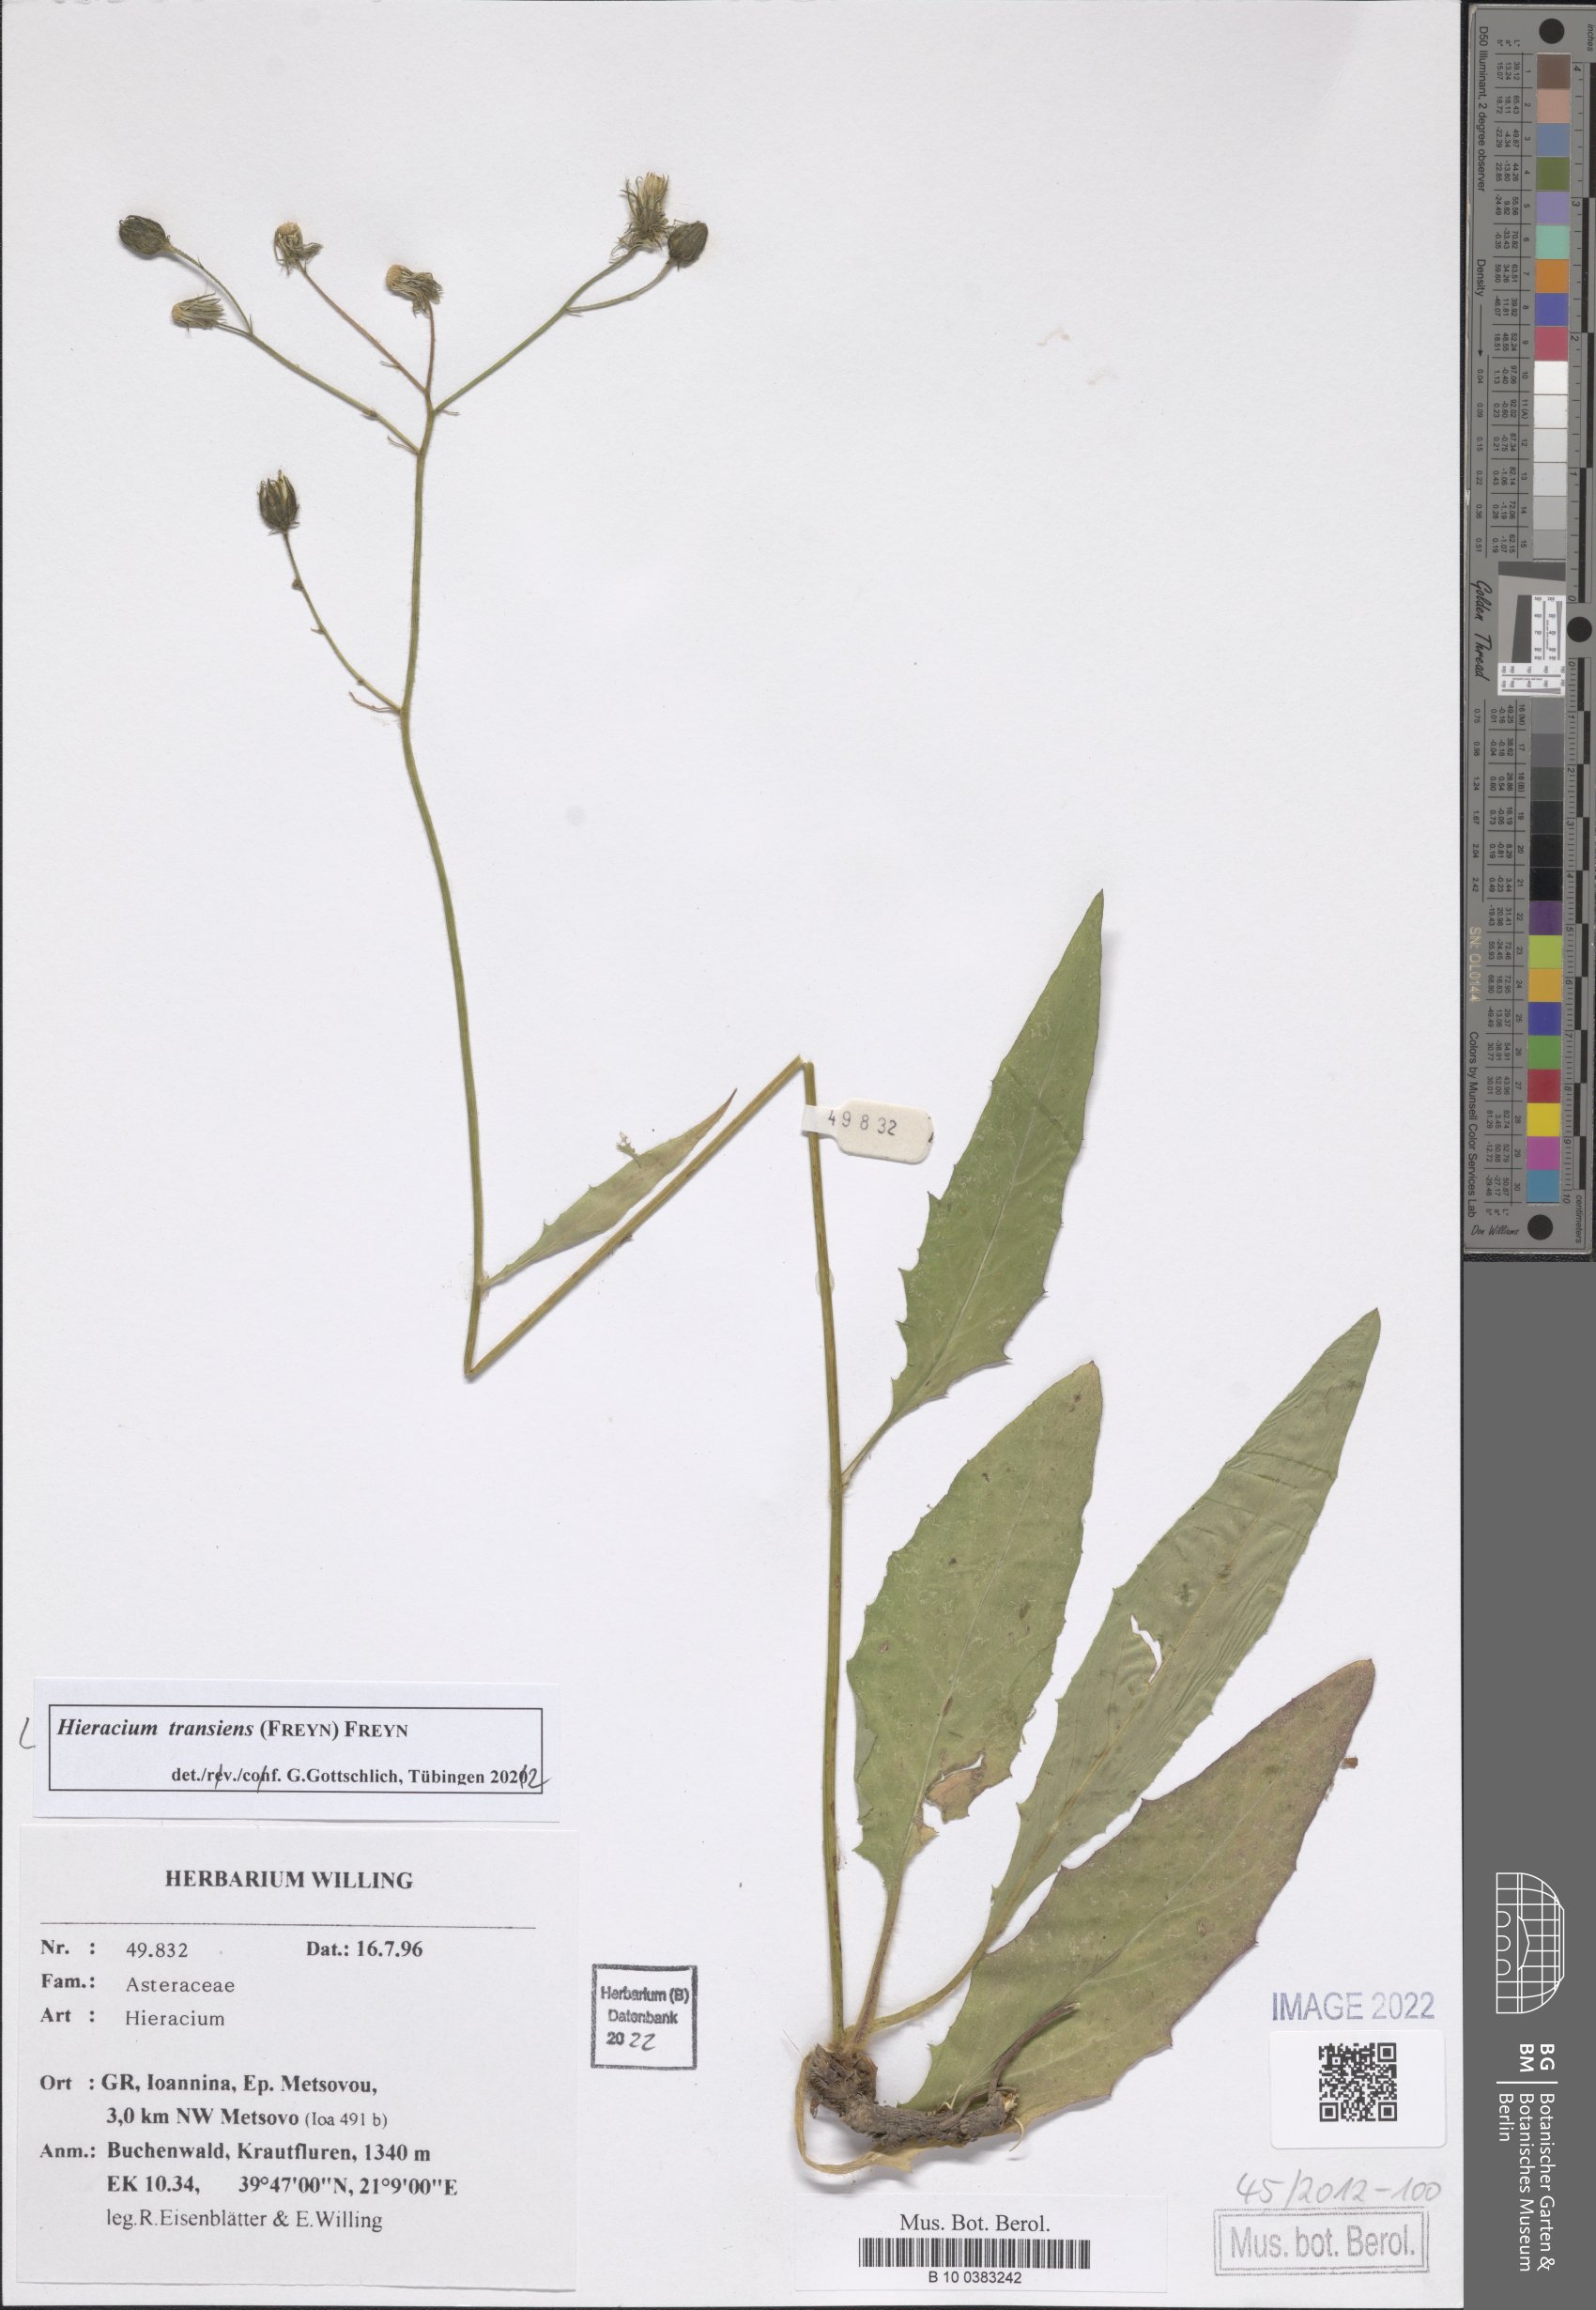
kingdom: Plantae
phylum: Tracheophyta
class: Magnoliopsida
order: Asterales
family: Asteraceae
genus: Hieracium
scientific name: Hieracium transiens
